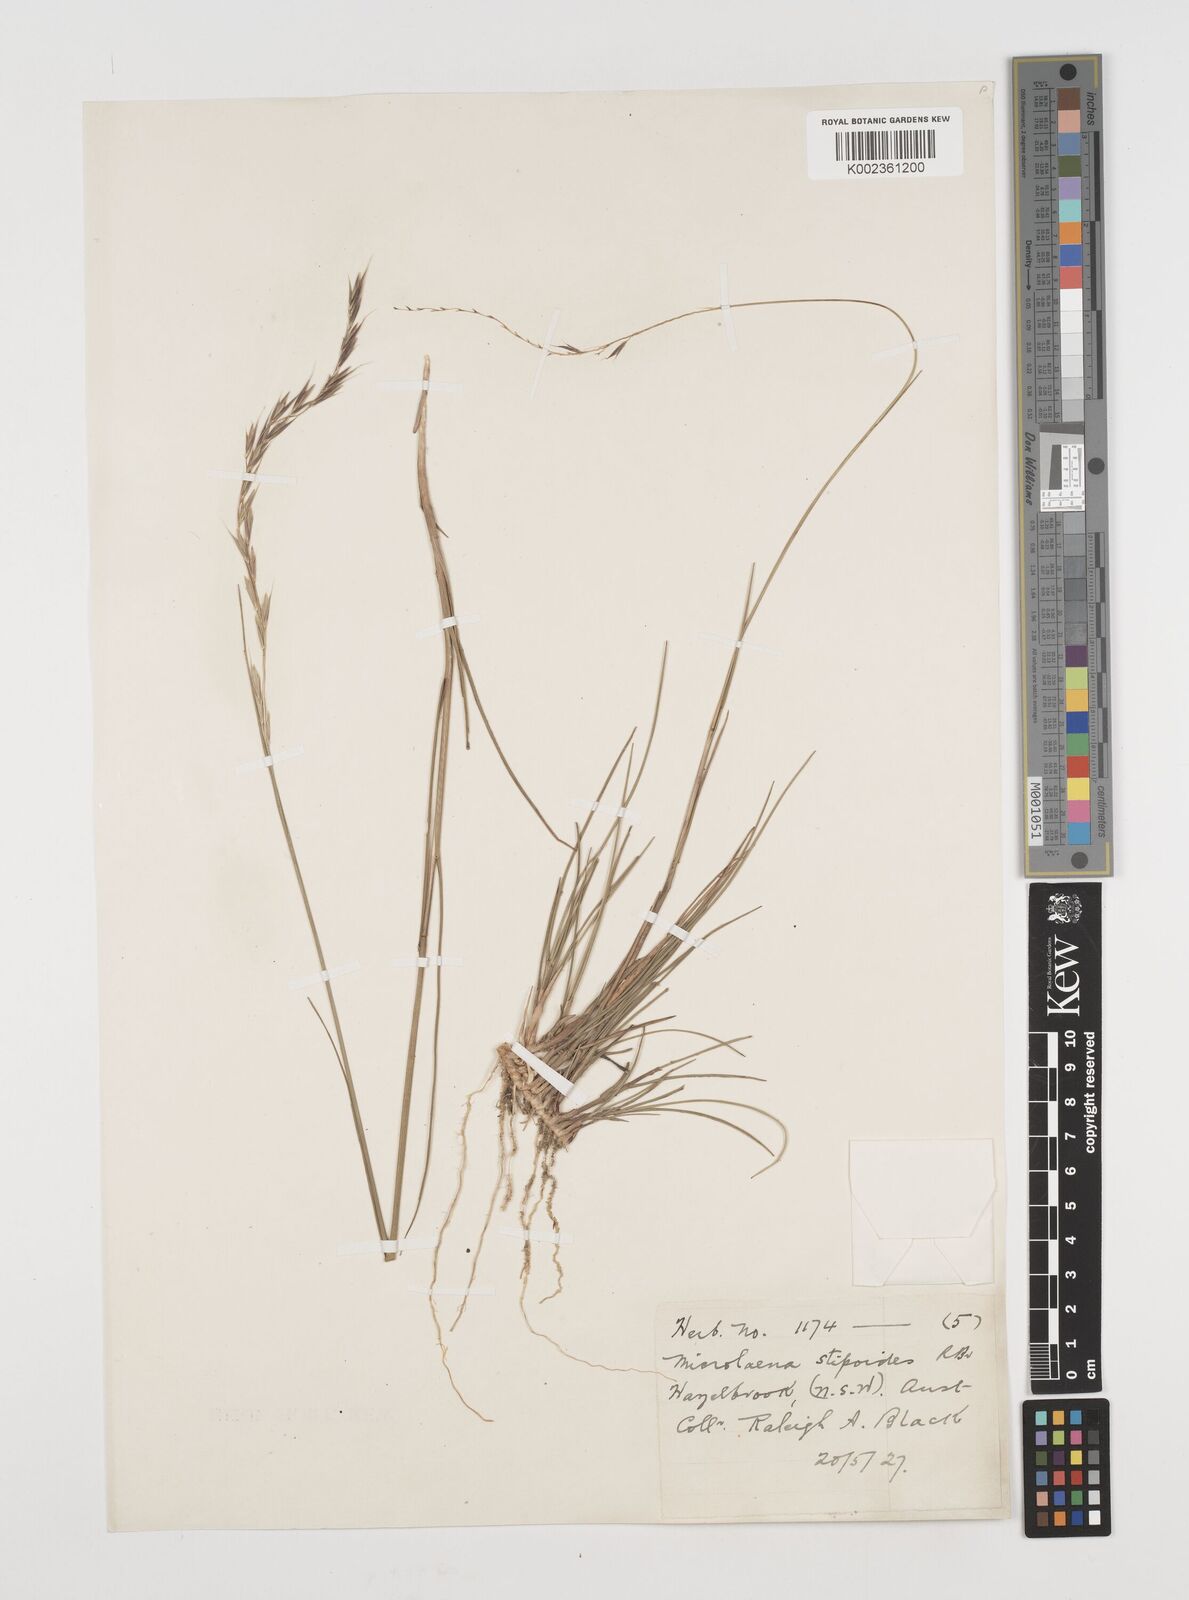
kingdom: Plantae
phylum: Tracheophyta
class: Liliopsida
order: Poales
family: Poaceae
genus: Microlaena
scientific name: Microlaena stipoides
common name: Meadow ricegrass
